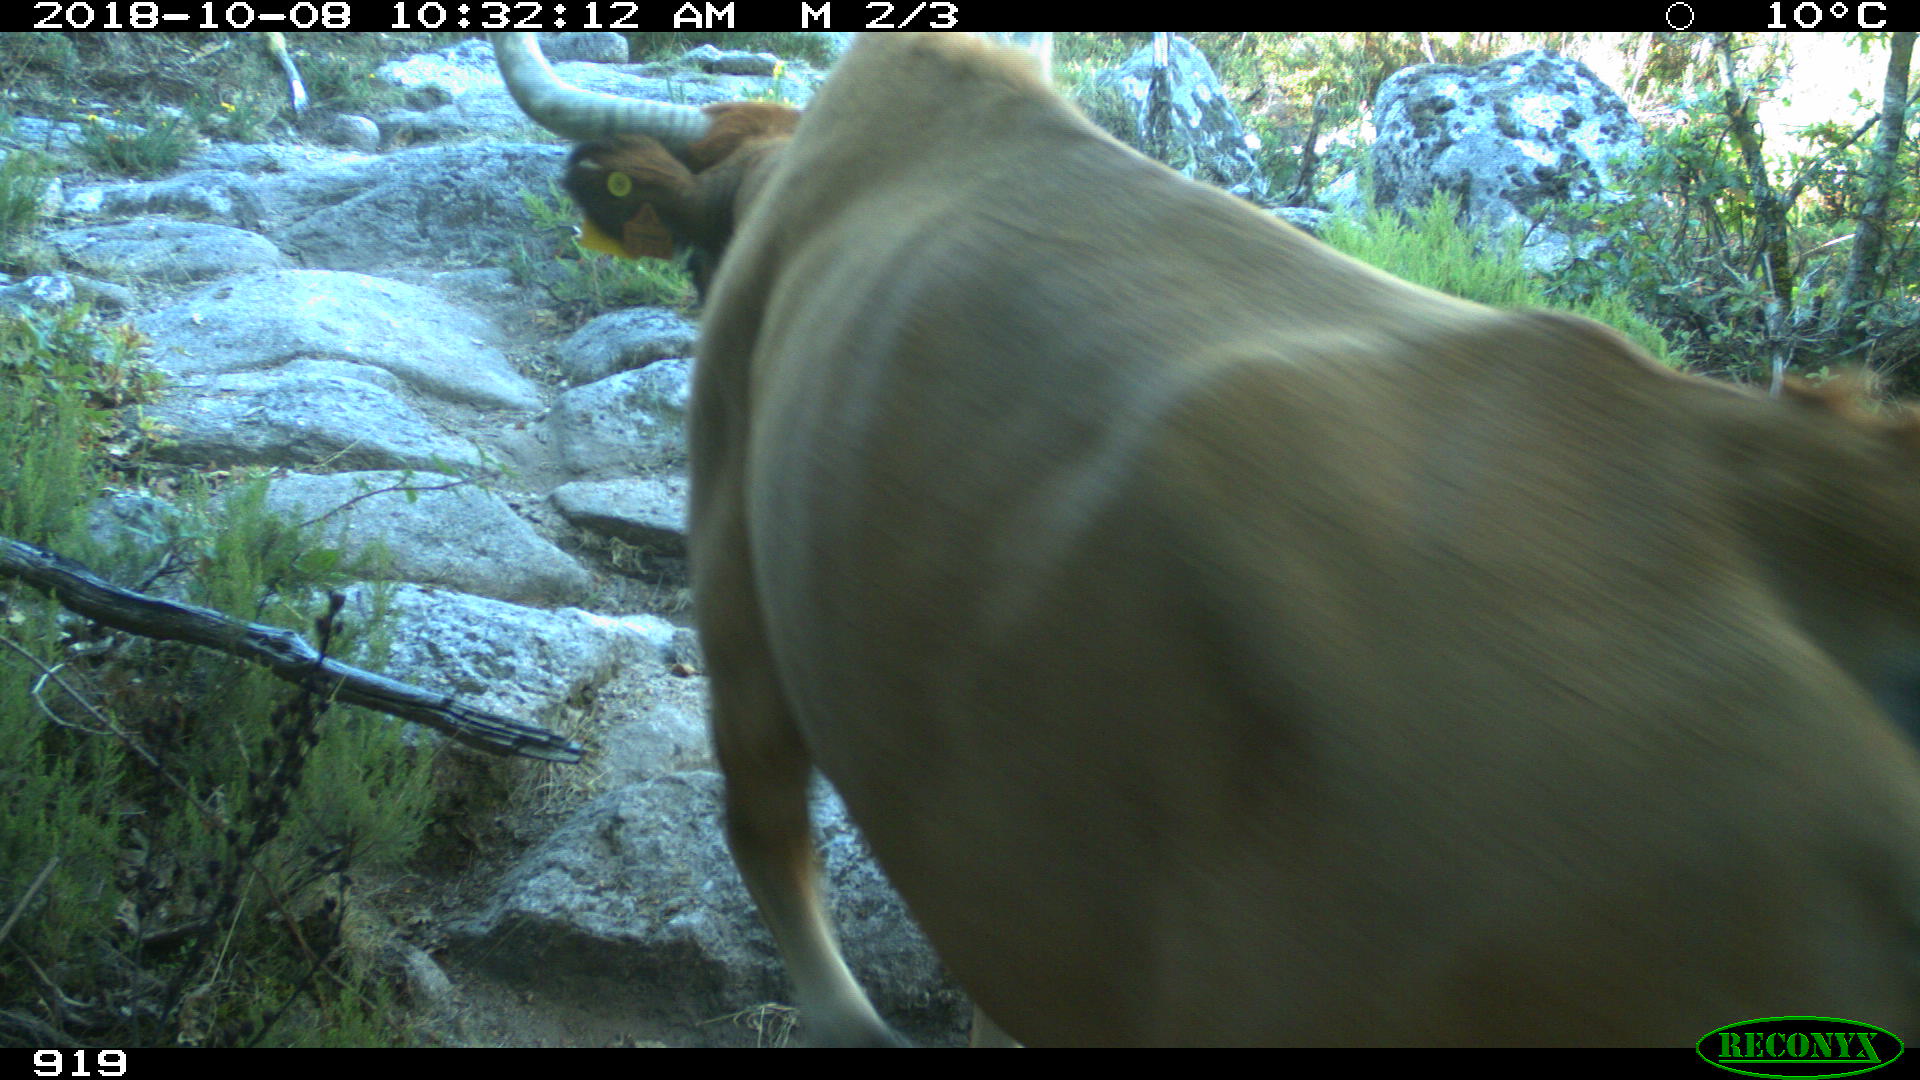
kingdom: Animalia
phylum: Chordata
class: Mammalia
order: Artiodactyla
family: Bovidae
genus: Bos
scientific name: Bos taurus
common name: Domesticated cattle
